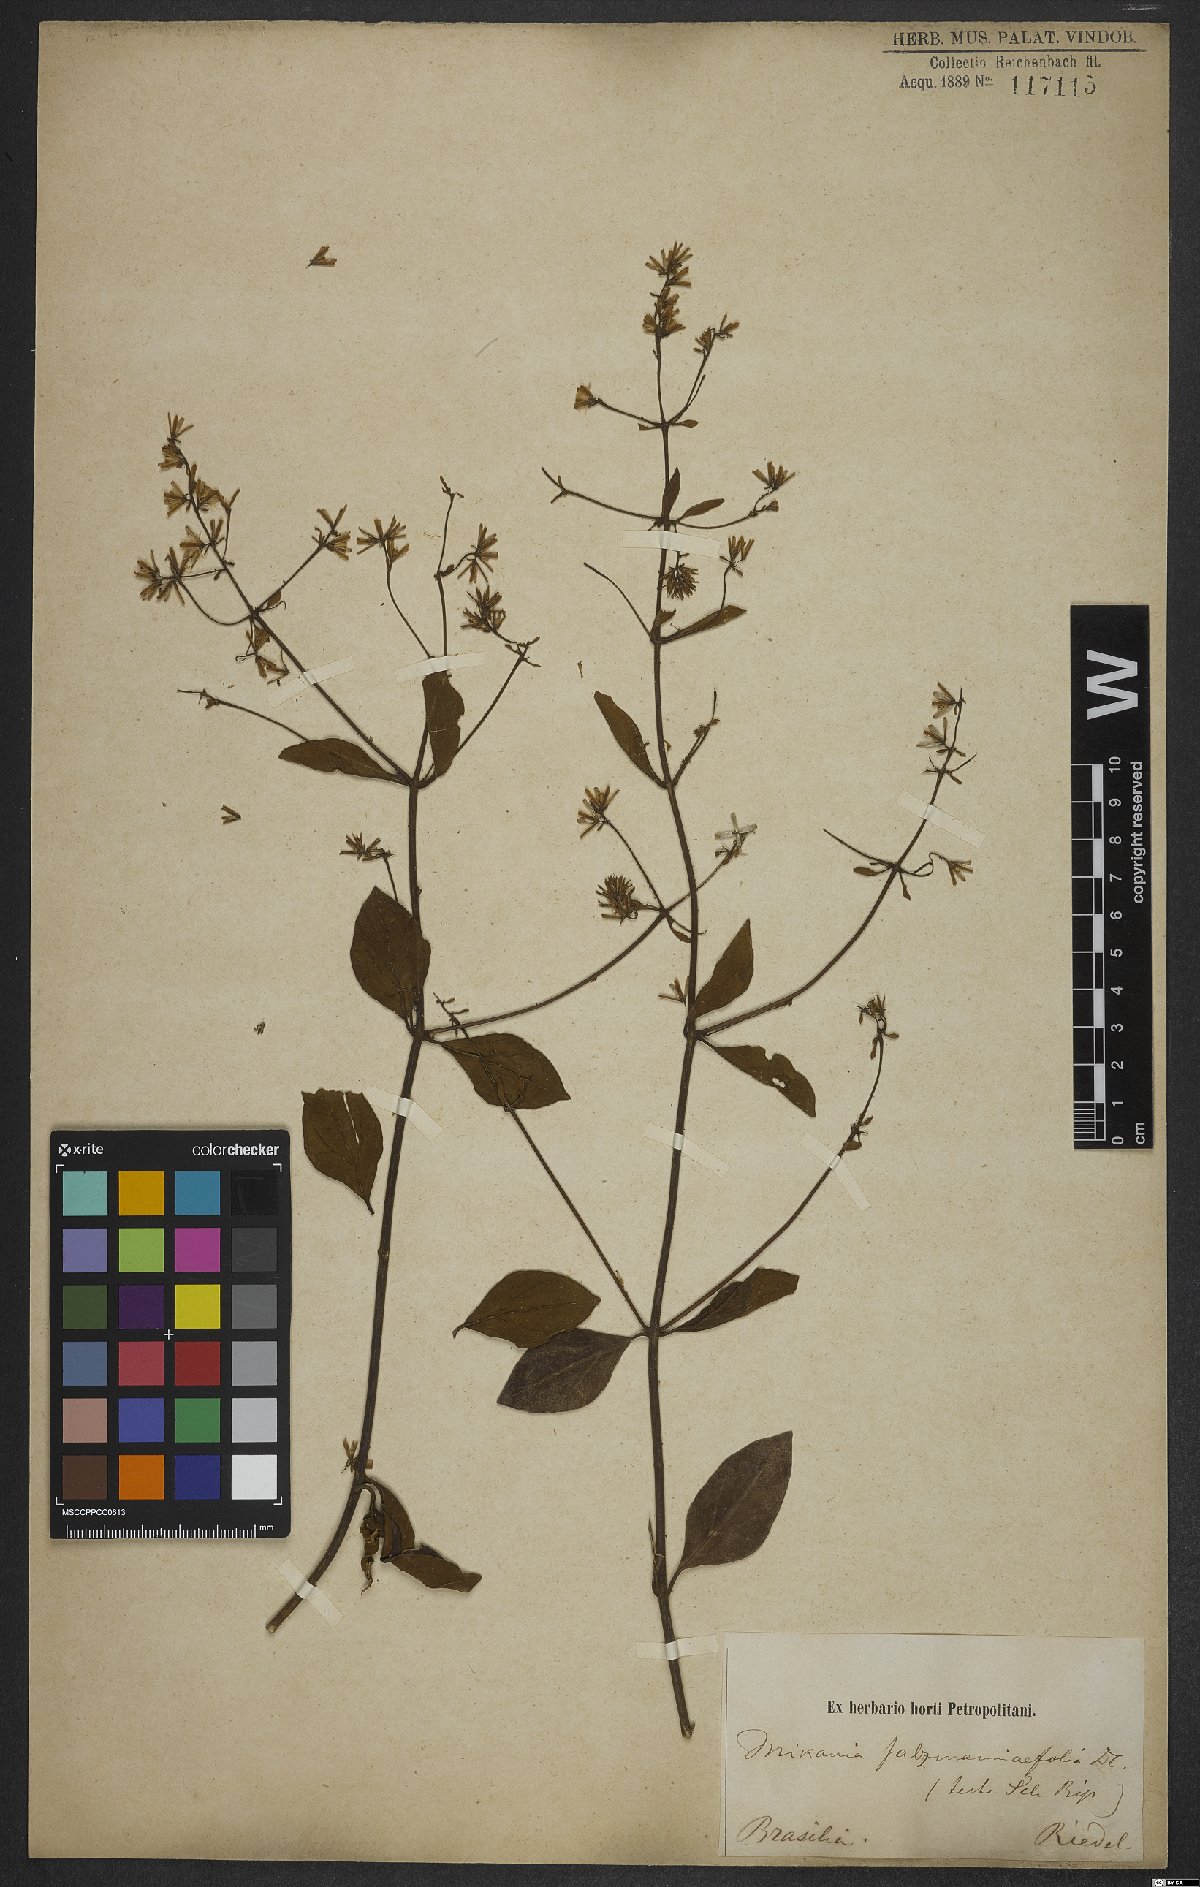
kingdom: Plantae
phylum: Tracheophyta
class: Magnoliopsida
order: Asterales
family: Asteraceae
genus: Mikania
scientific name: Mikania salzmanniifolia
